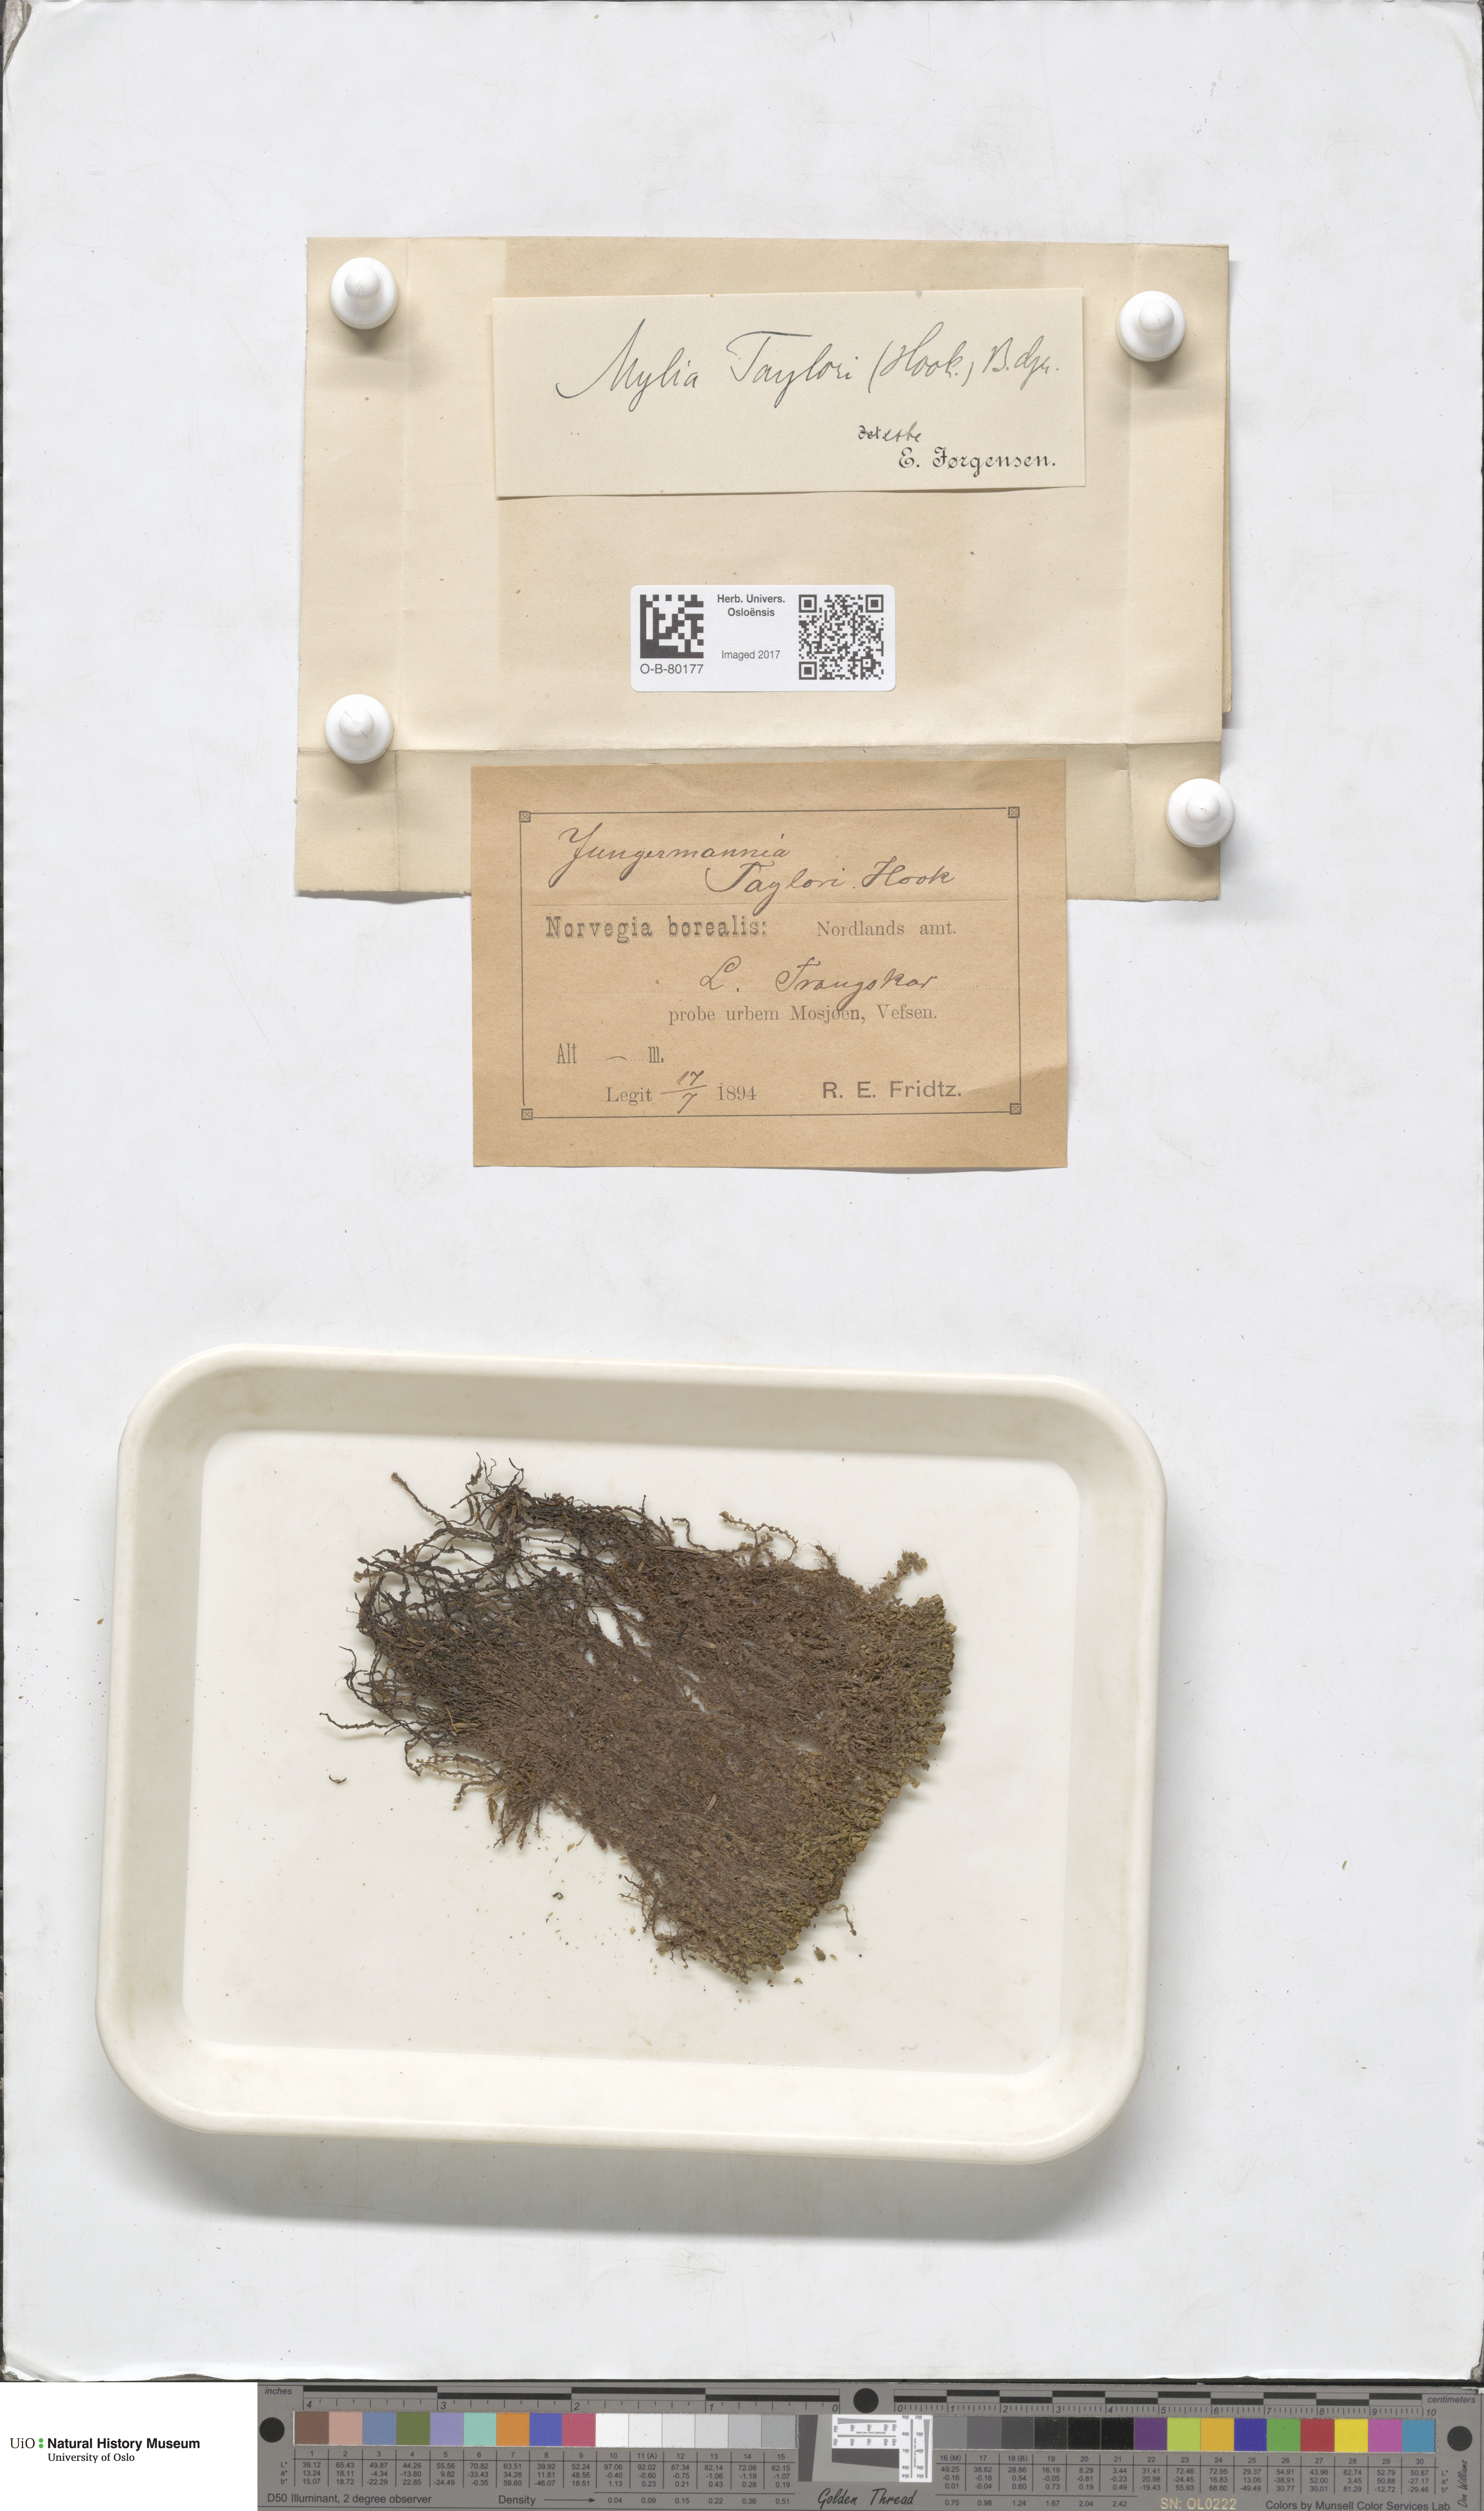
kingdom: Plantae
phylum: Marchantiophyta
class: Jungermanniopsida
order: Jungermanniales
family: Myliaceae
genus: Mylia
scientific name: Mylia taylorii
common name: Taylor s flapwort
